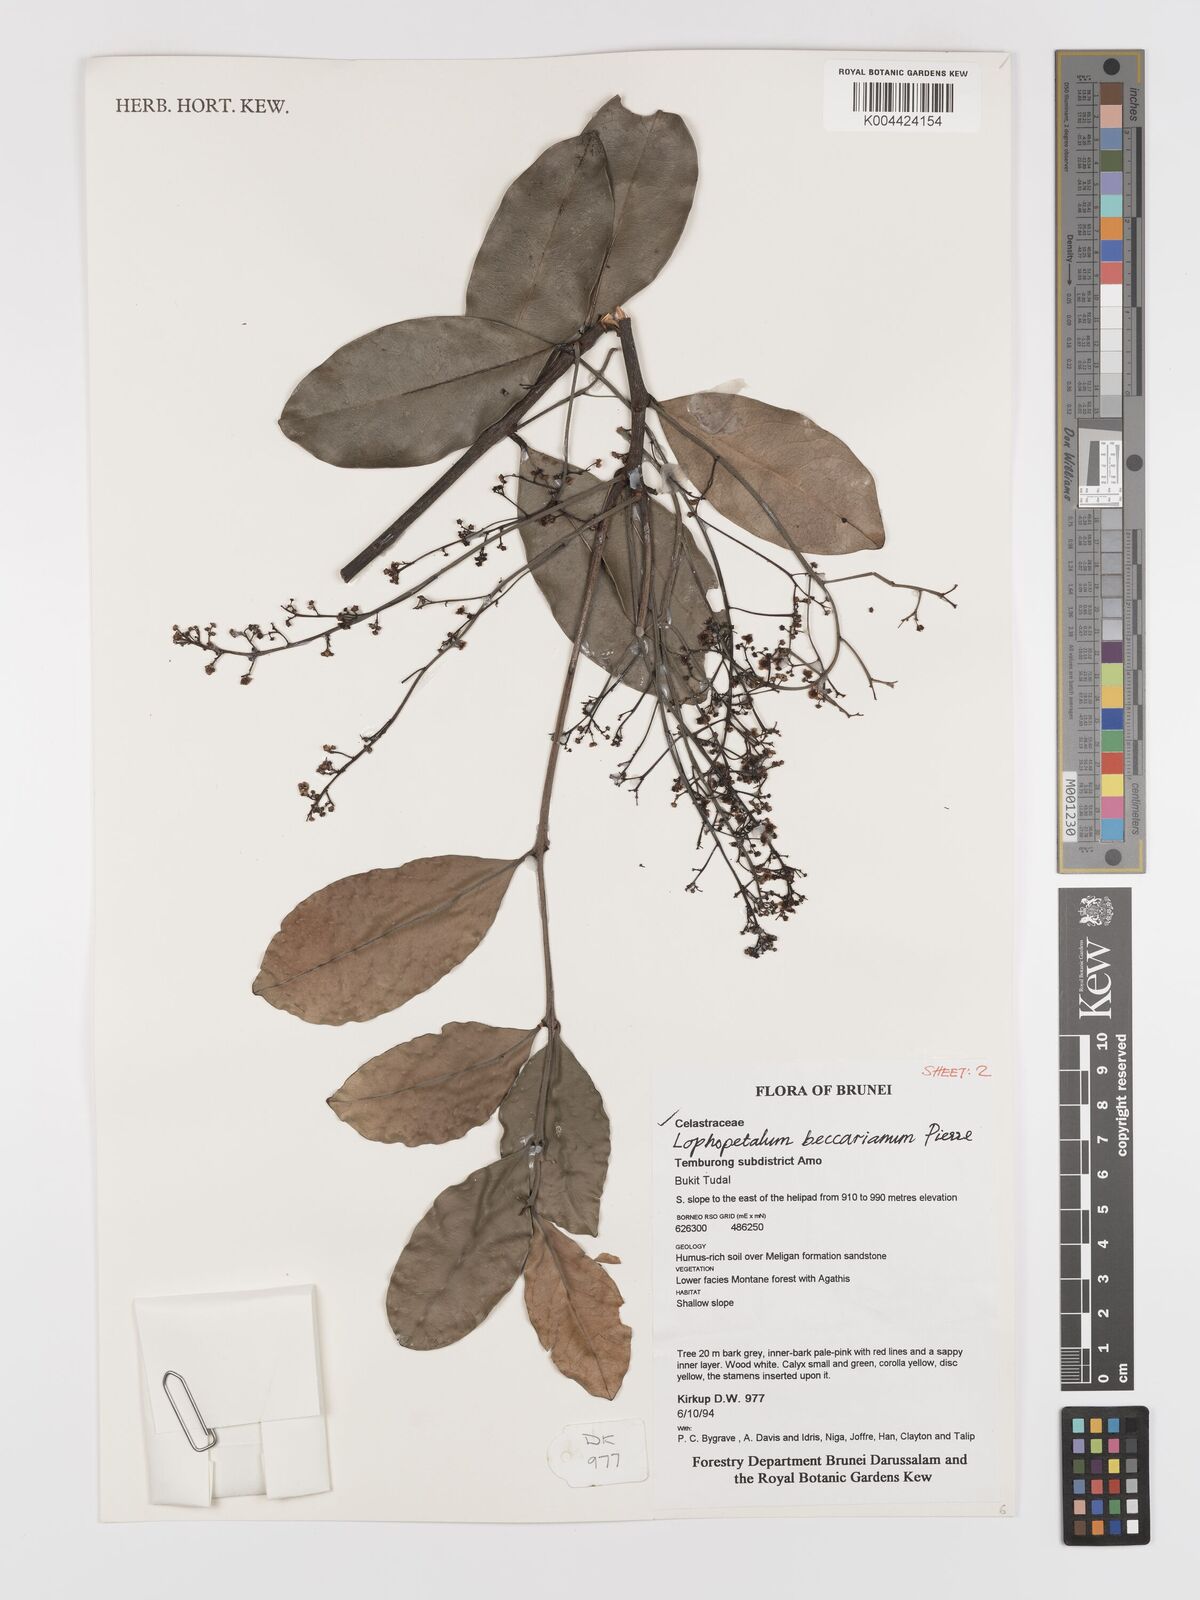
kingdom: Plantae
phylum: Tracheophyta
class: Magnoliopsida
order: Celastrales
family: Celastraceae
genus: Lophopetalum
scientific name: Lophopetalum beccarianum
